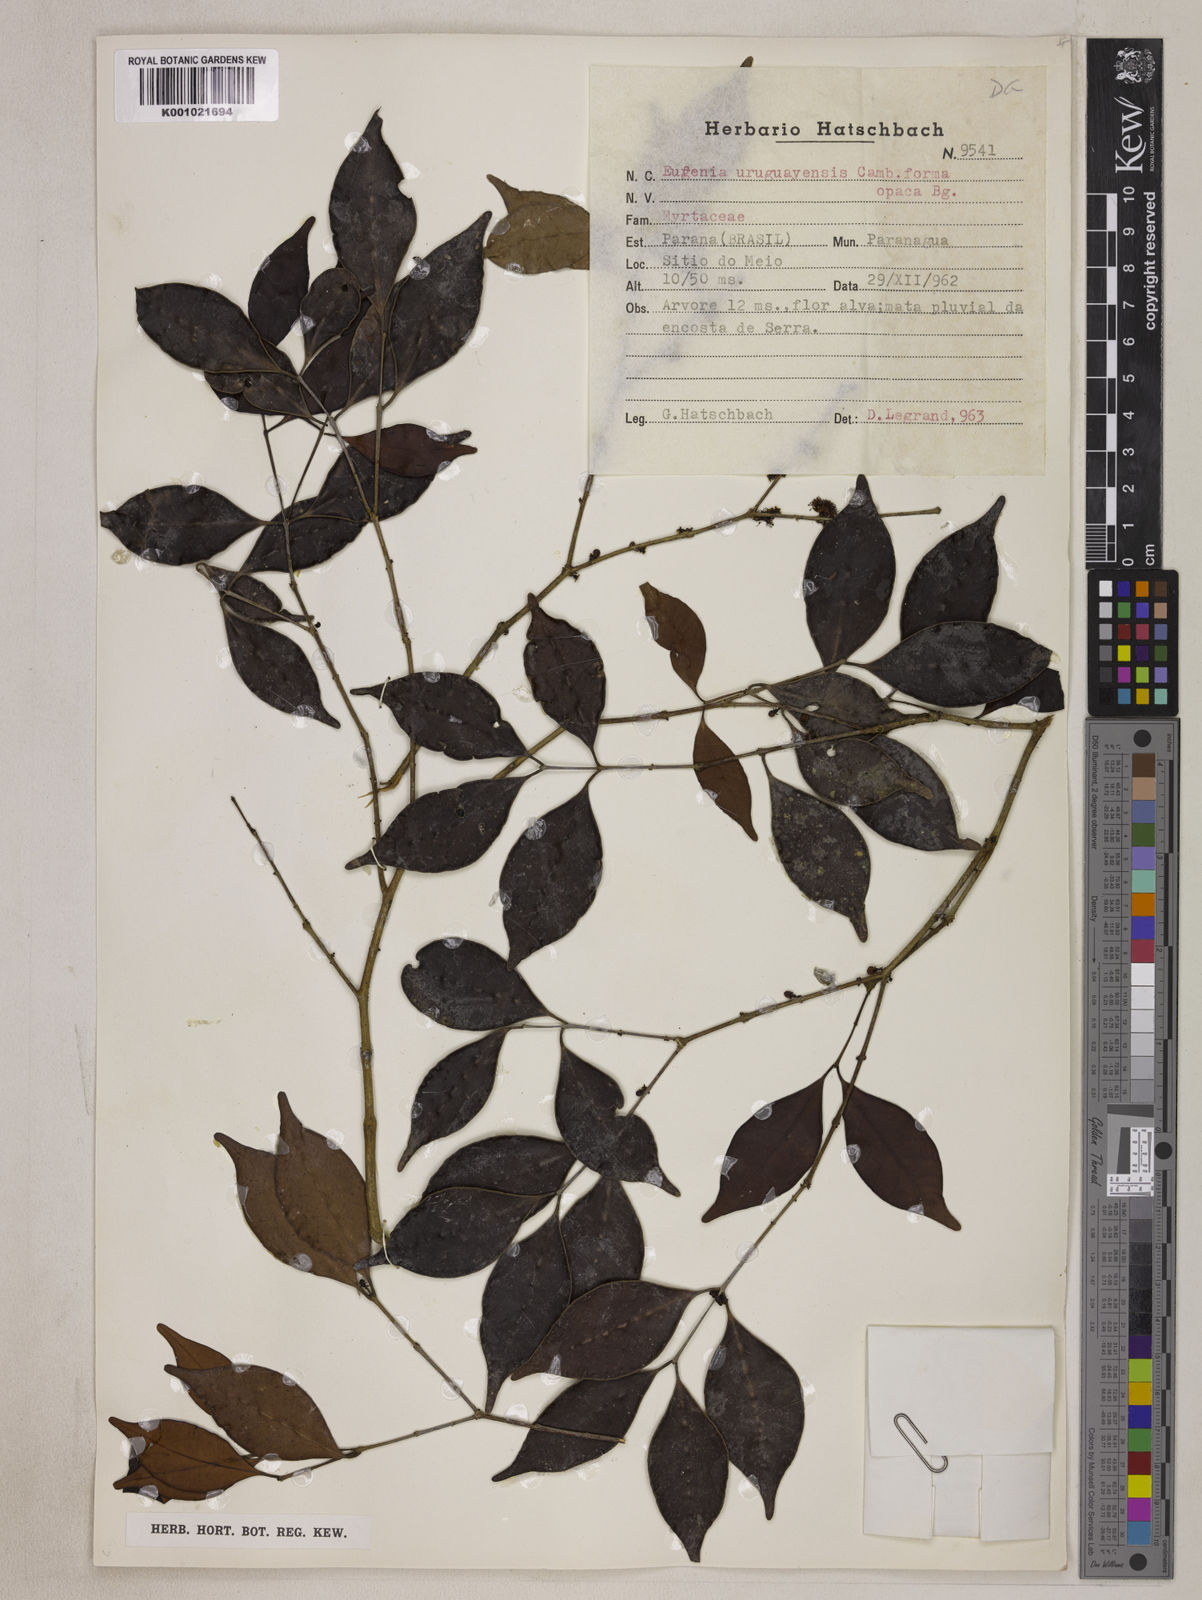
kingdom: Plantae
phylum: Tracheophyta
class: Magnoliopsida
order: Myrtales
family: Myrtaceae
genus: Eugenia
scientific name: Eugenia uruguayensis
